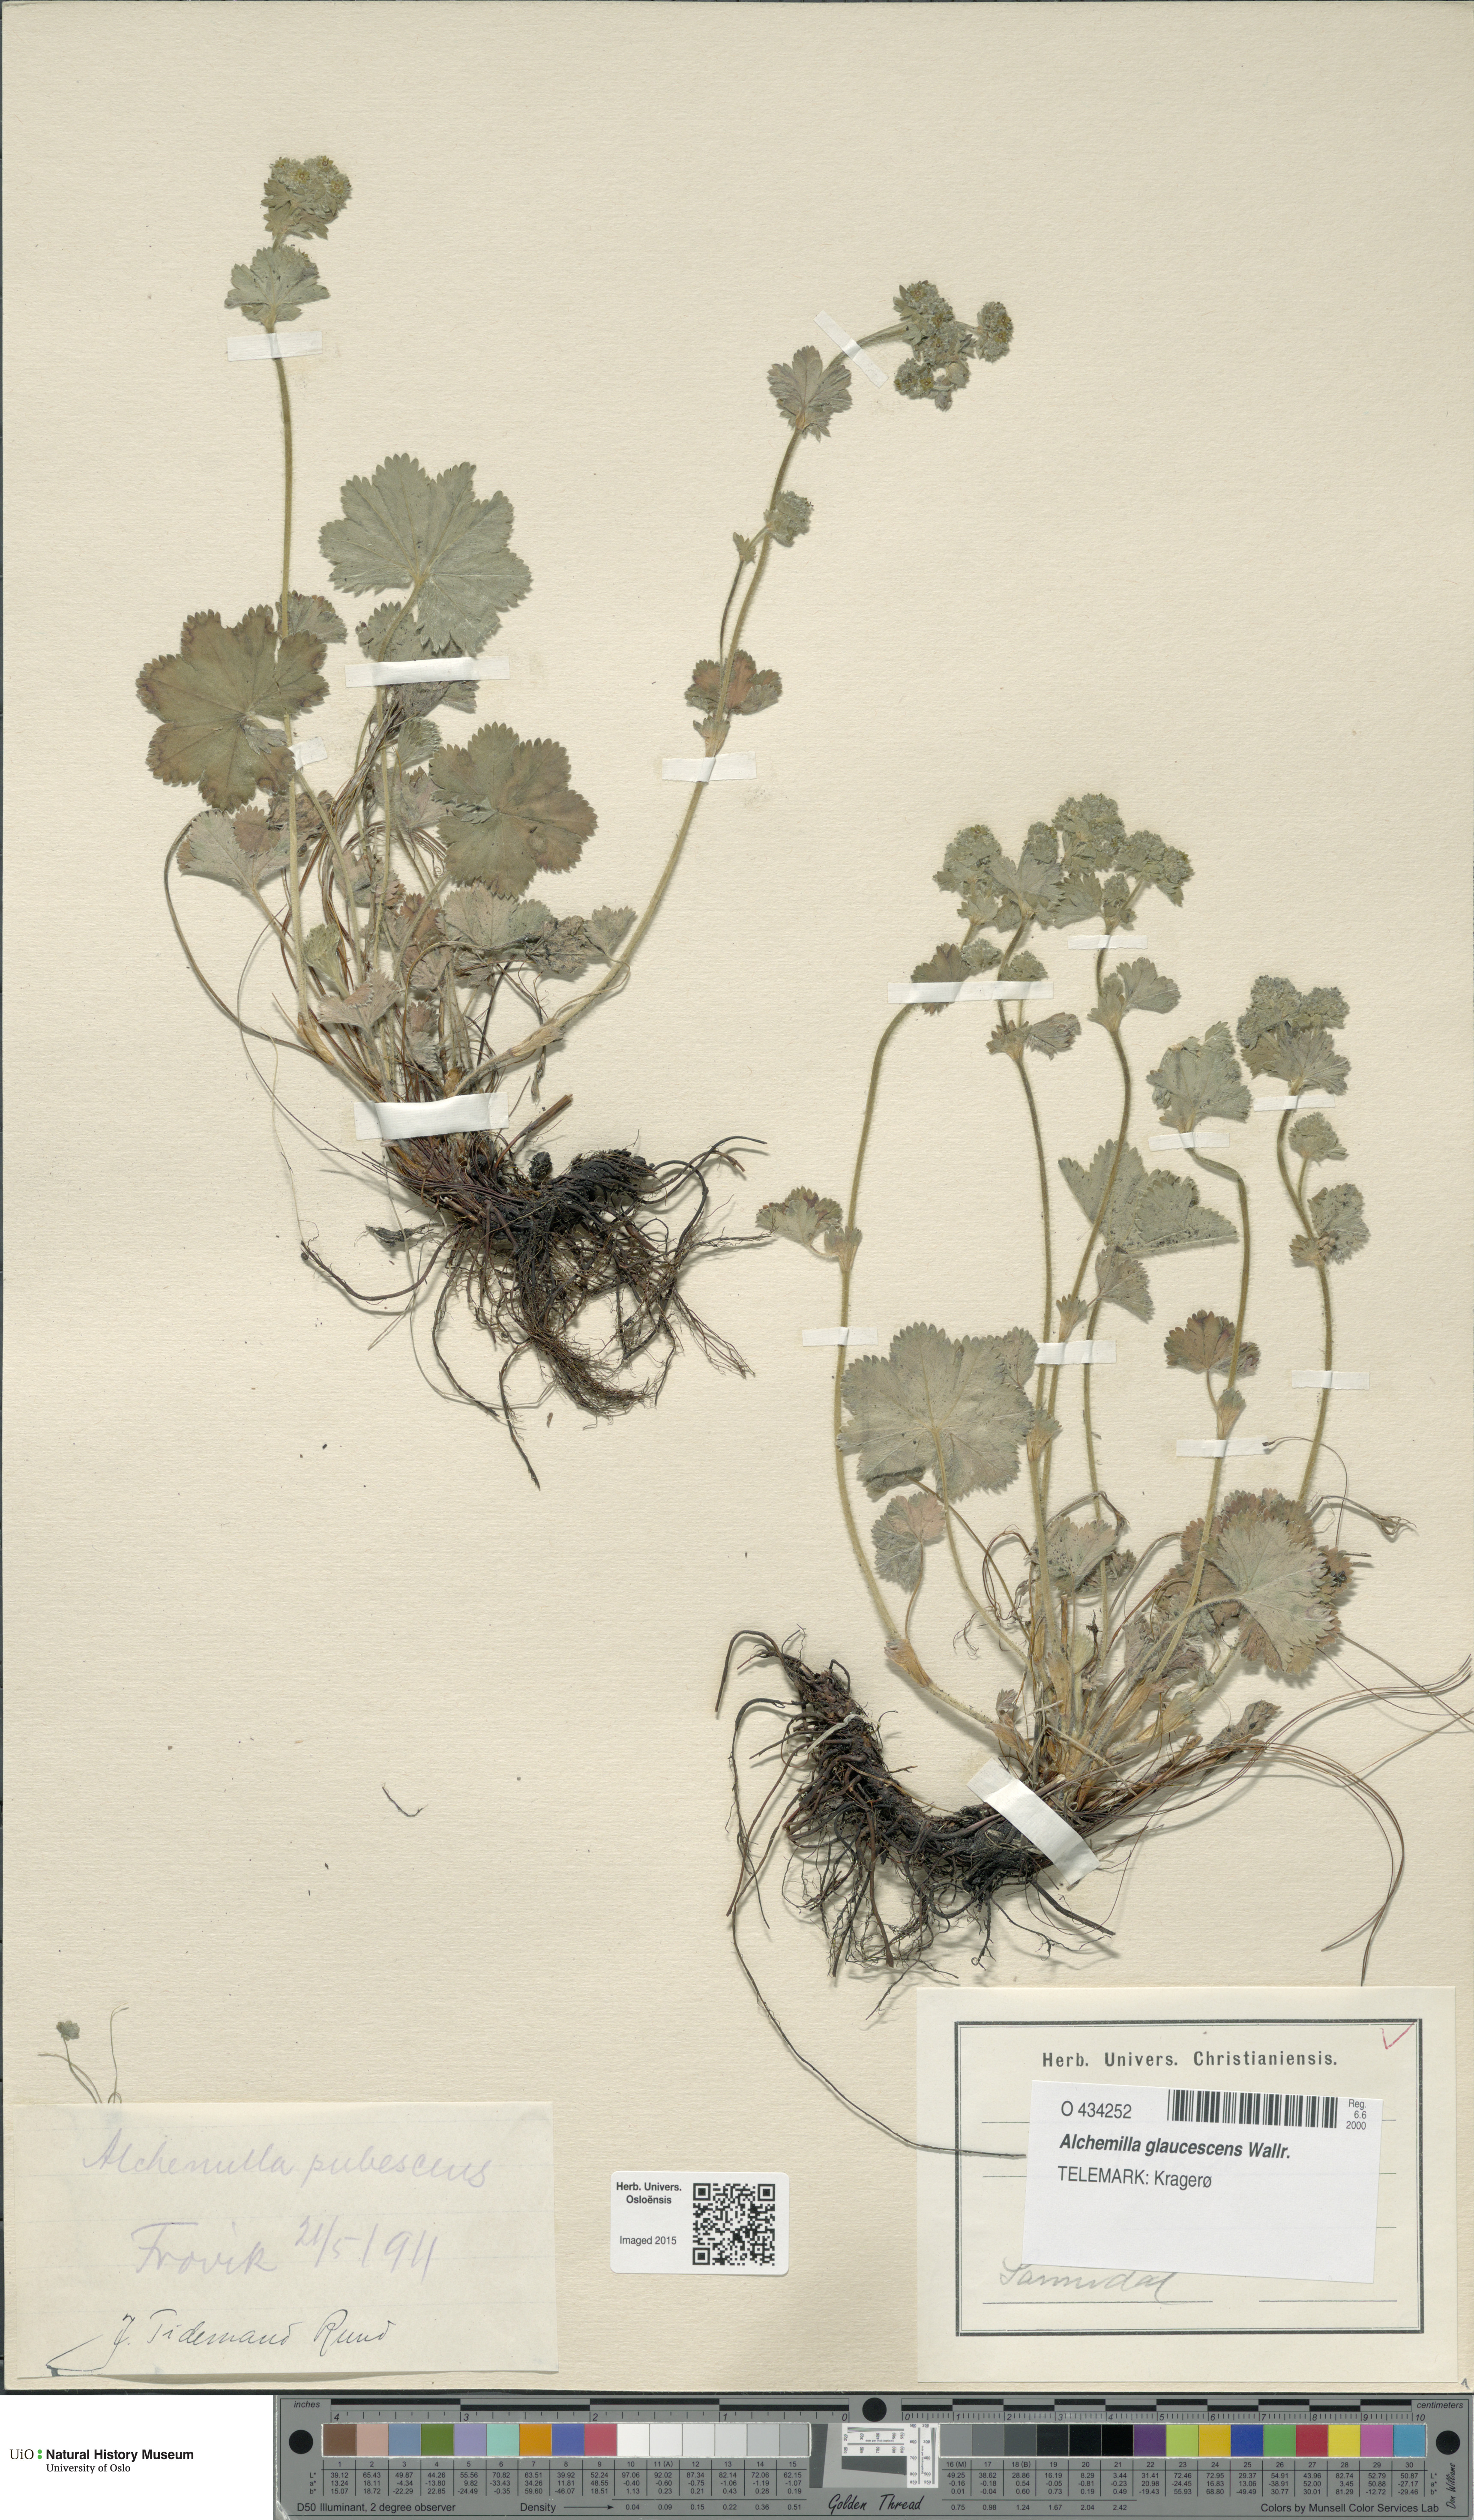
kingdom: Plantae
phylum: Tracheophyta
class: Magnoliopsida
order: Rosales
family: Rosaceae
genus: Alchemilla
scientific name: Alchemilla glaucescens
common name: Silky lady's mantle
